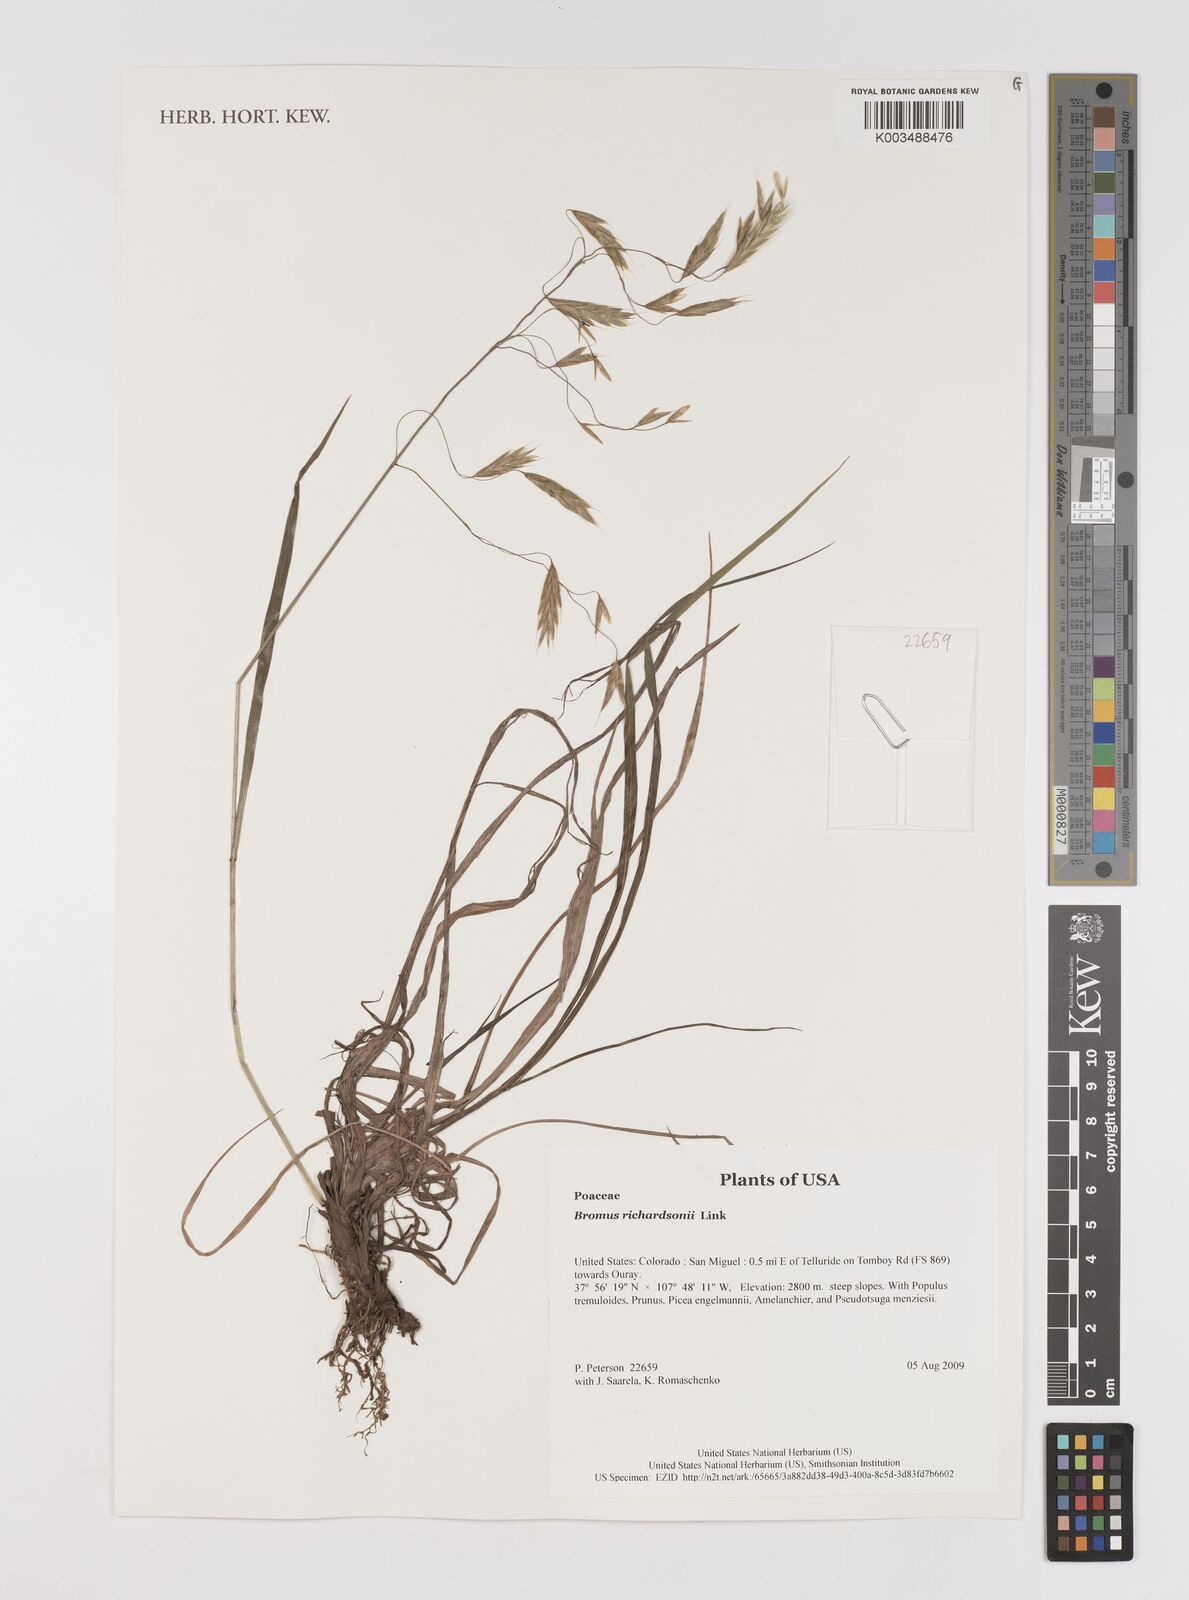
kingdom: Plantae
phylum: Tracheophyta
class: Liliopsida
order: Poales
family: Poaceae
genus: Bromus
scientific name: Bromus richardsonii
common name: Richardson's brome
